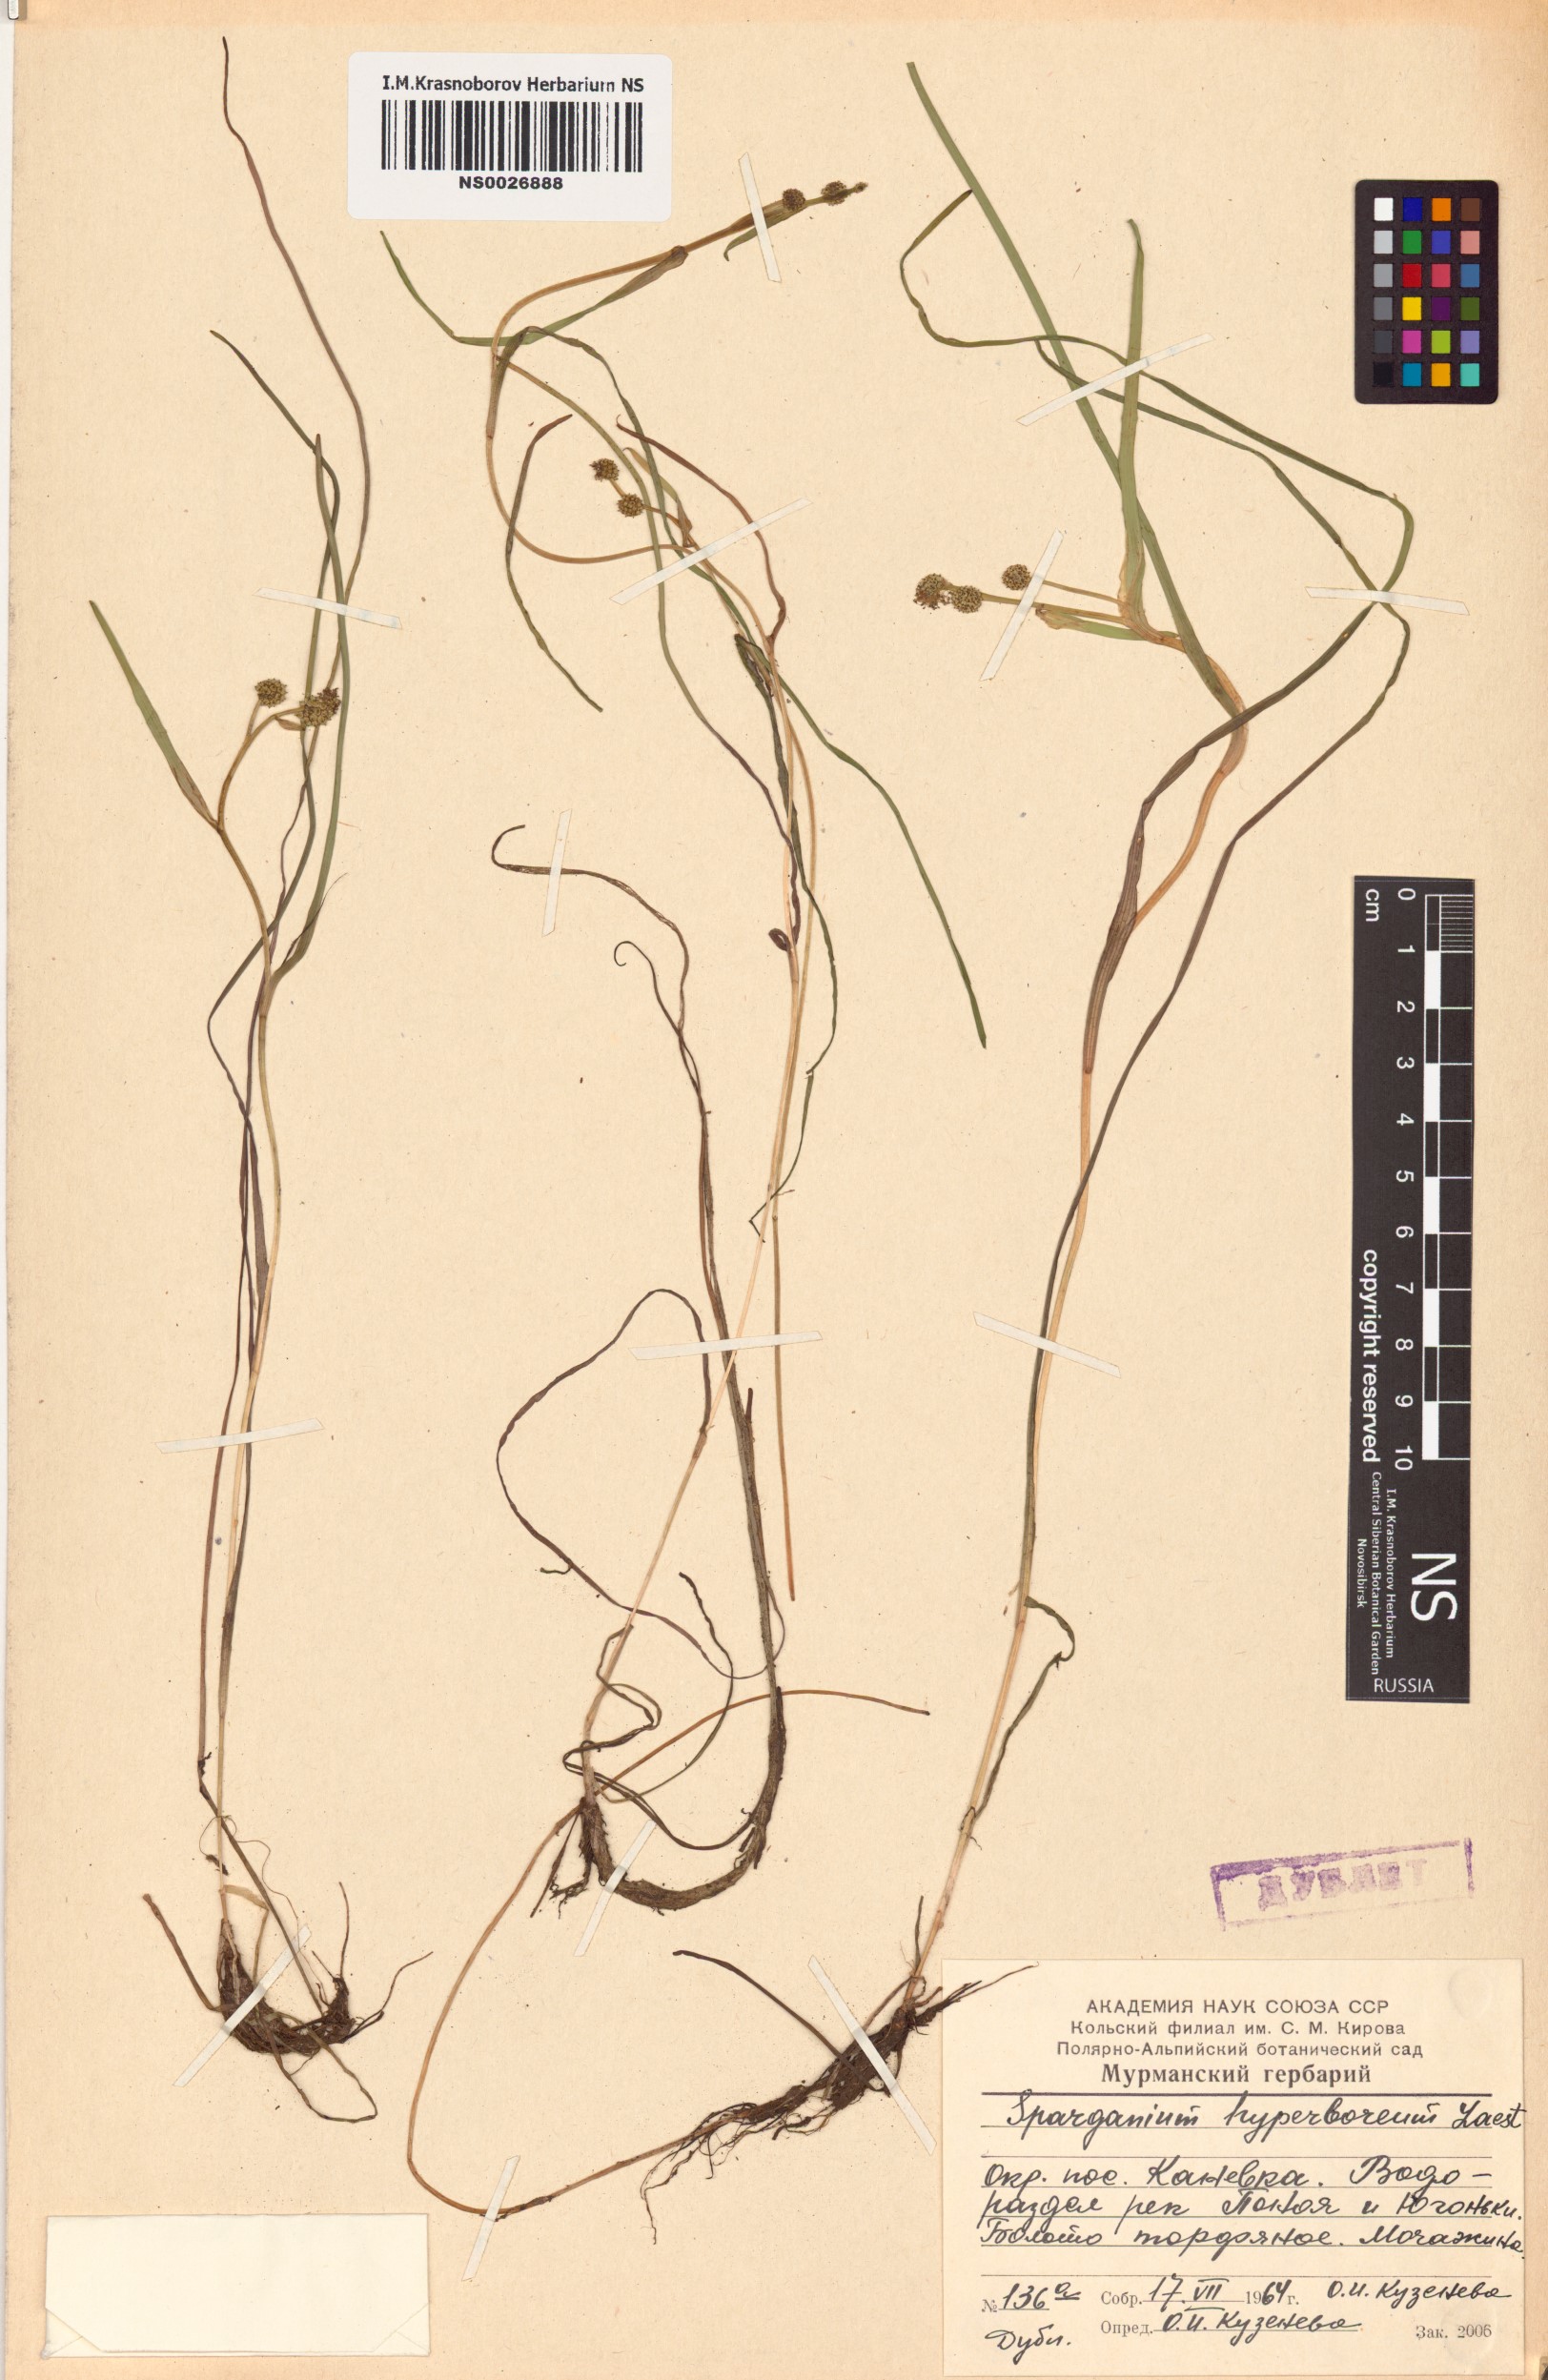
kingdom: Plantae
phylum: Tracheophyta
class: Liliopsida
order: Poales
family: Typhaceae
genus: Sparganium
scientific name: Sparganium hyperboreum
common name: Arctic burreed
